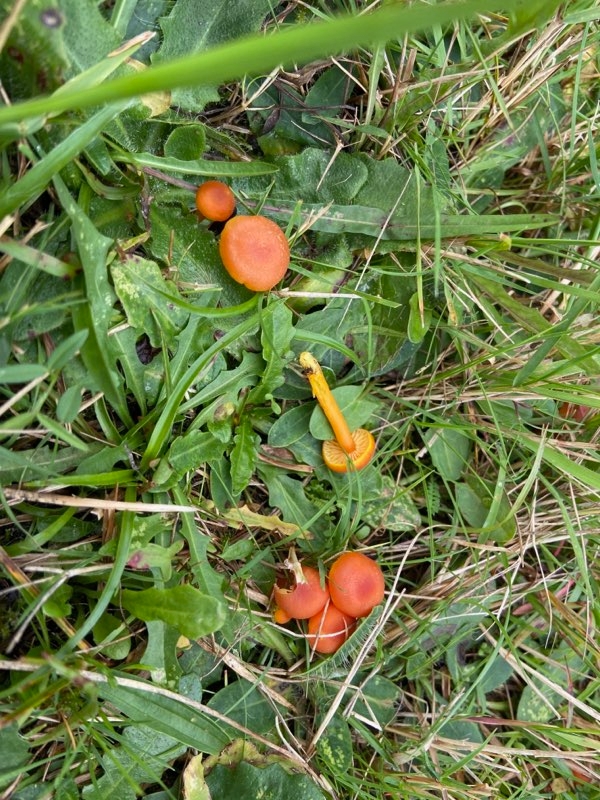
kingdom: Fungi
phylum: Basidiomycota
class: Agaricomycetes
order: Agaricales
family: Hygrophoraceae
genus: Hygrocybe
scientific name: Hygrocybe miniata
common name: mønje-vokshat
